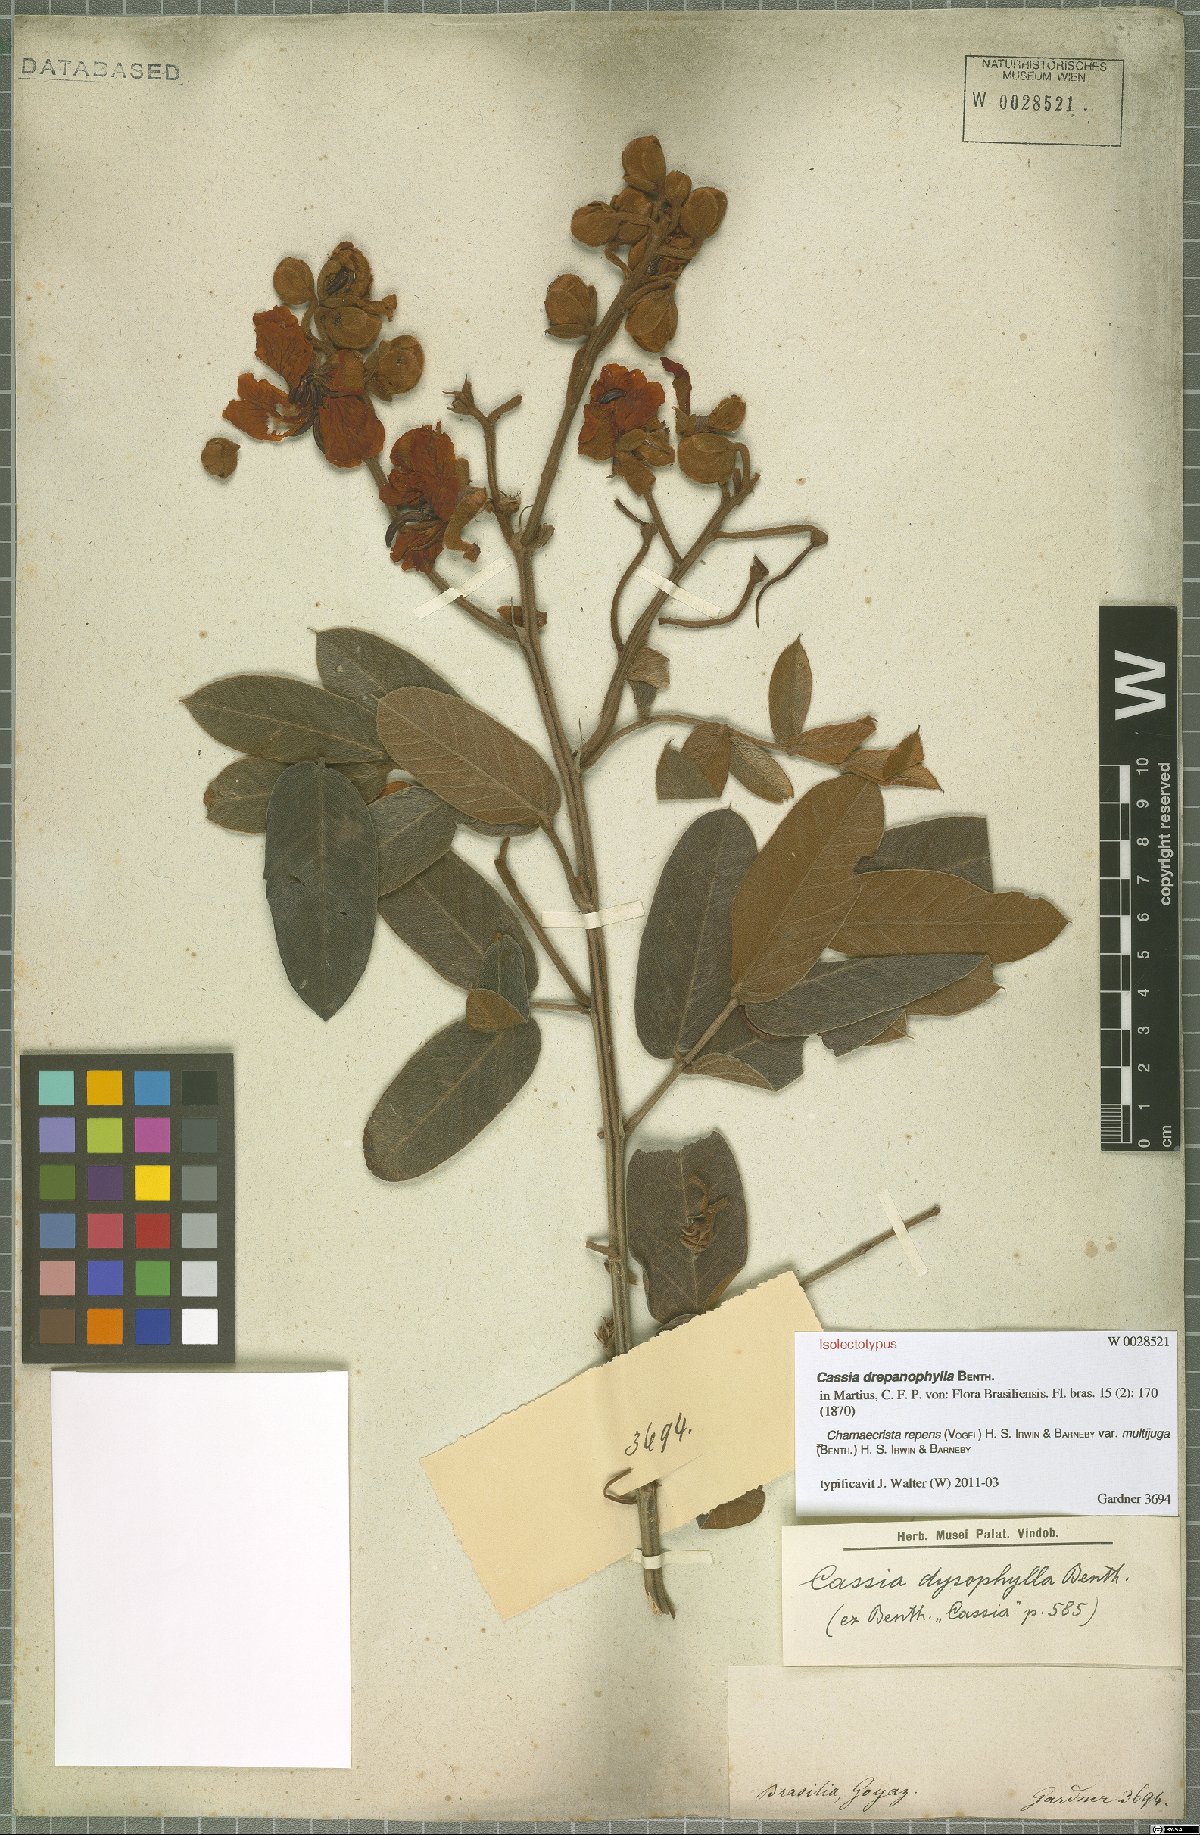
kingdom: Plantae
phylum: Tracheophyta
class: Magnoliopsida
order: Fabales
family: Fabaceae
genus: Chamaecrista
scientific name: Chamaecrista repens
